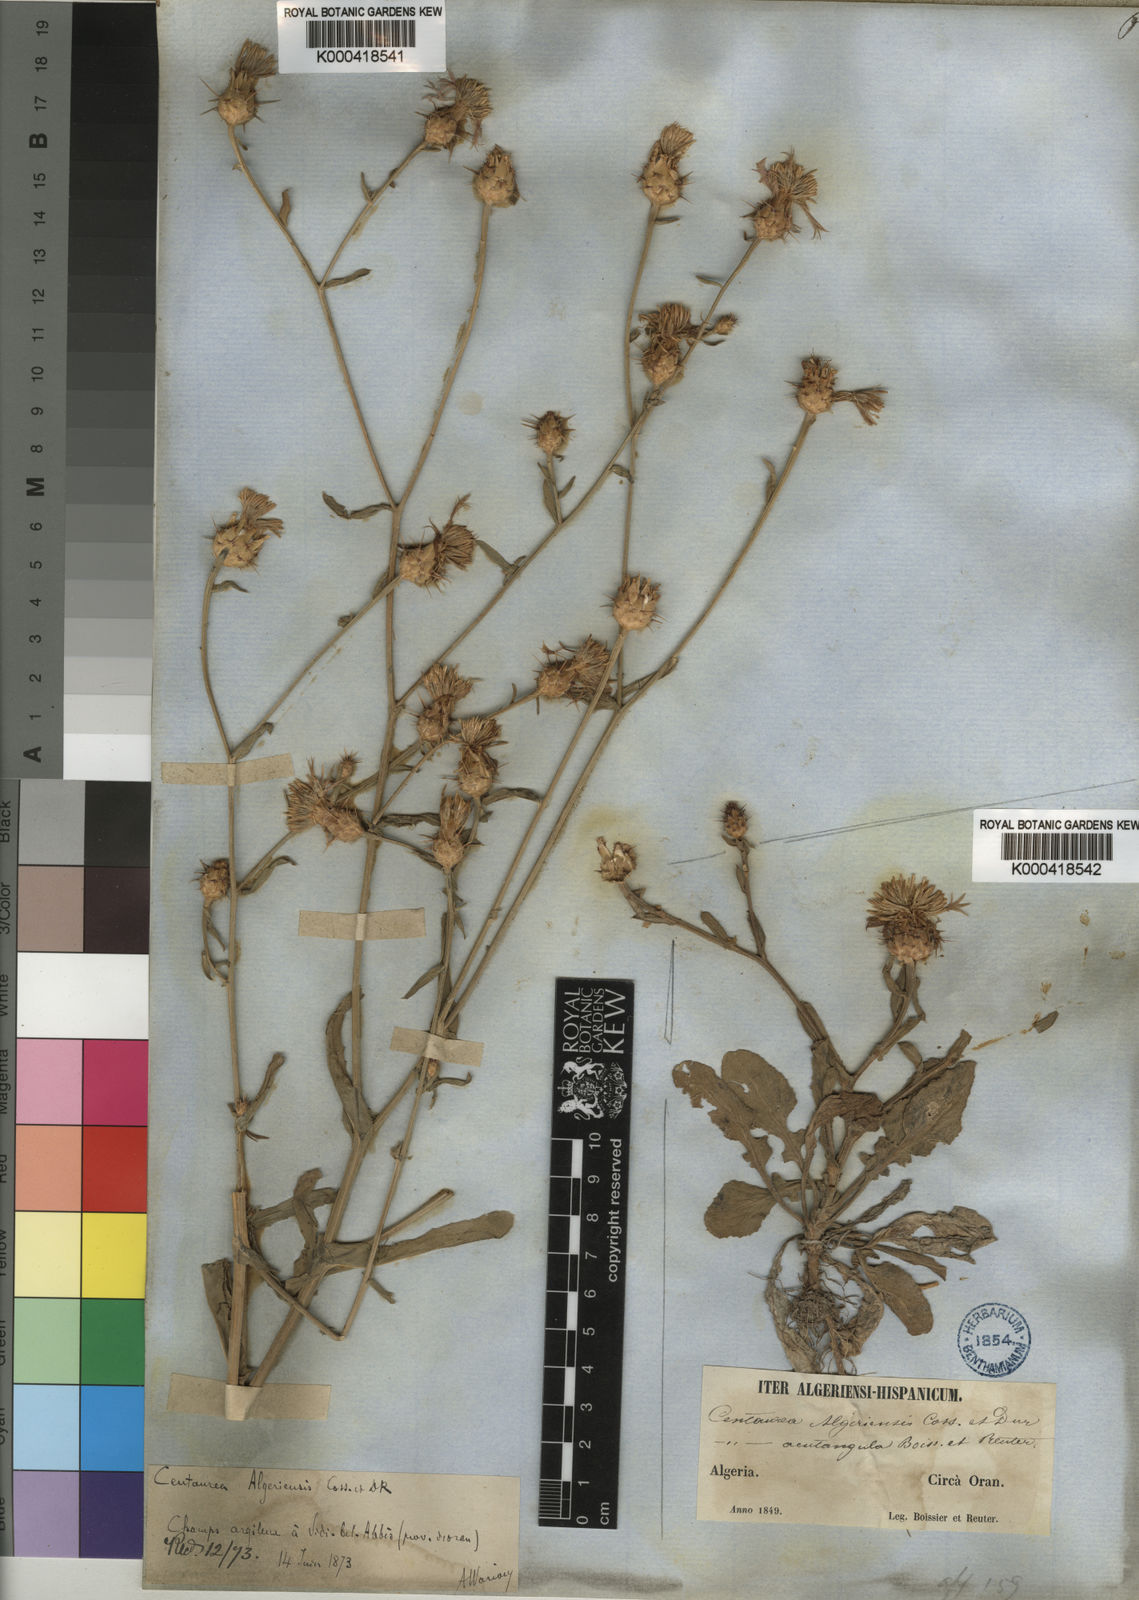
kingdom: Plantae
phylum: Tracheophyta
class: Magnoliopsida
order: Asterales
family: Asteraceae
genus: Centaurea
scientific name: Centaurea diluta
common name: Lesser star-thistle
